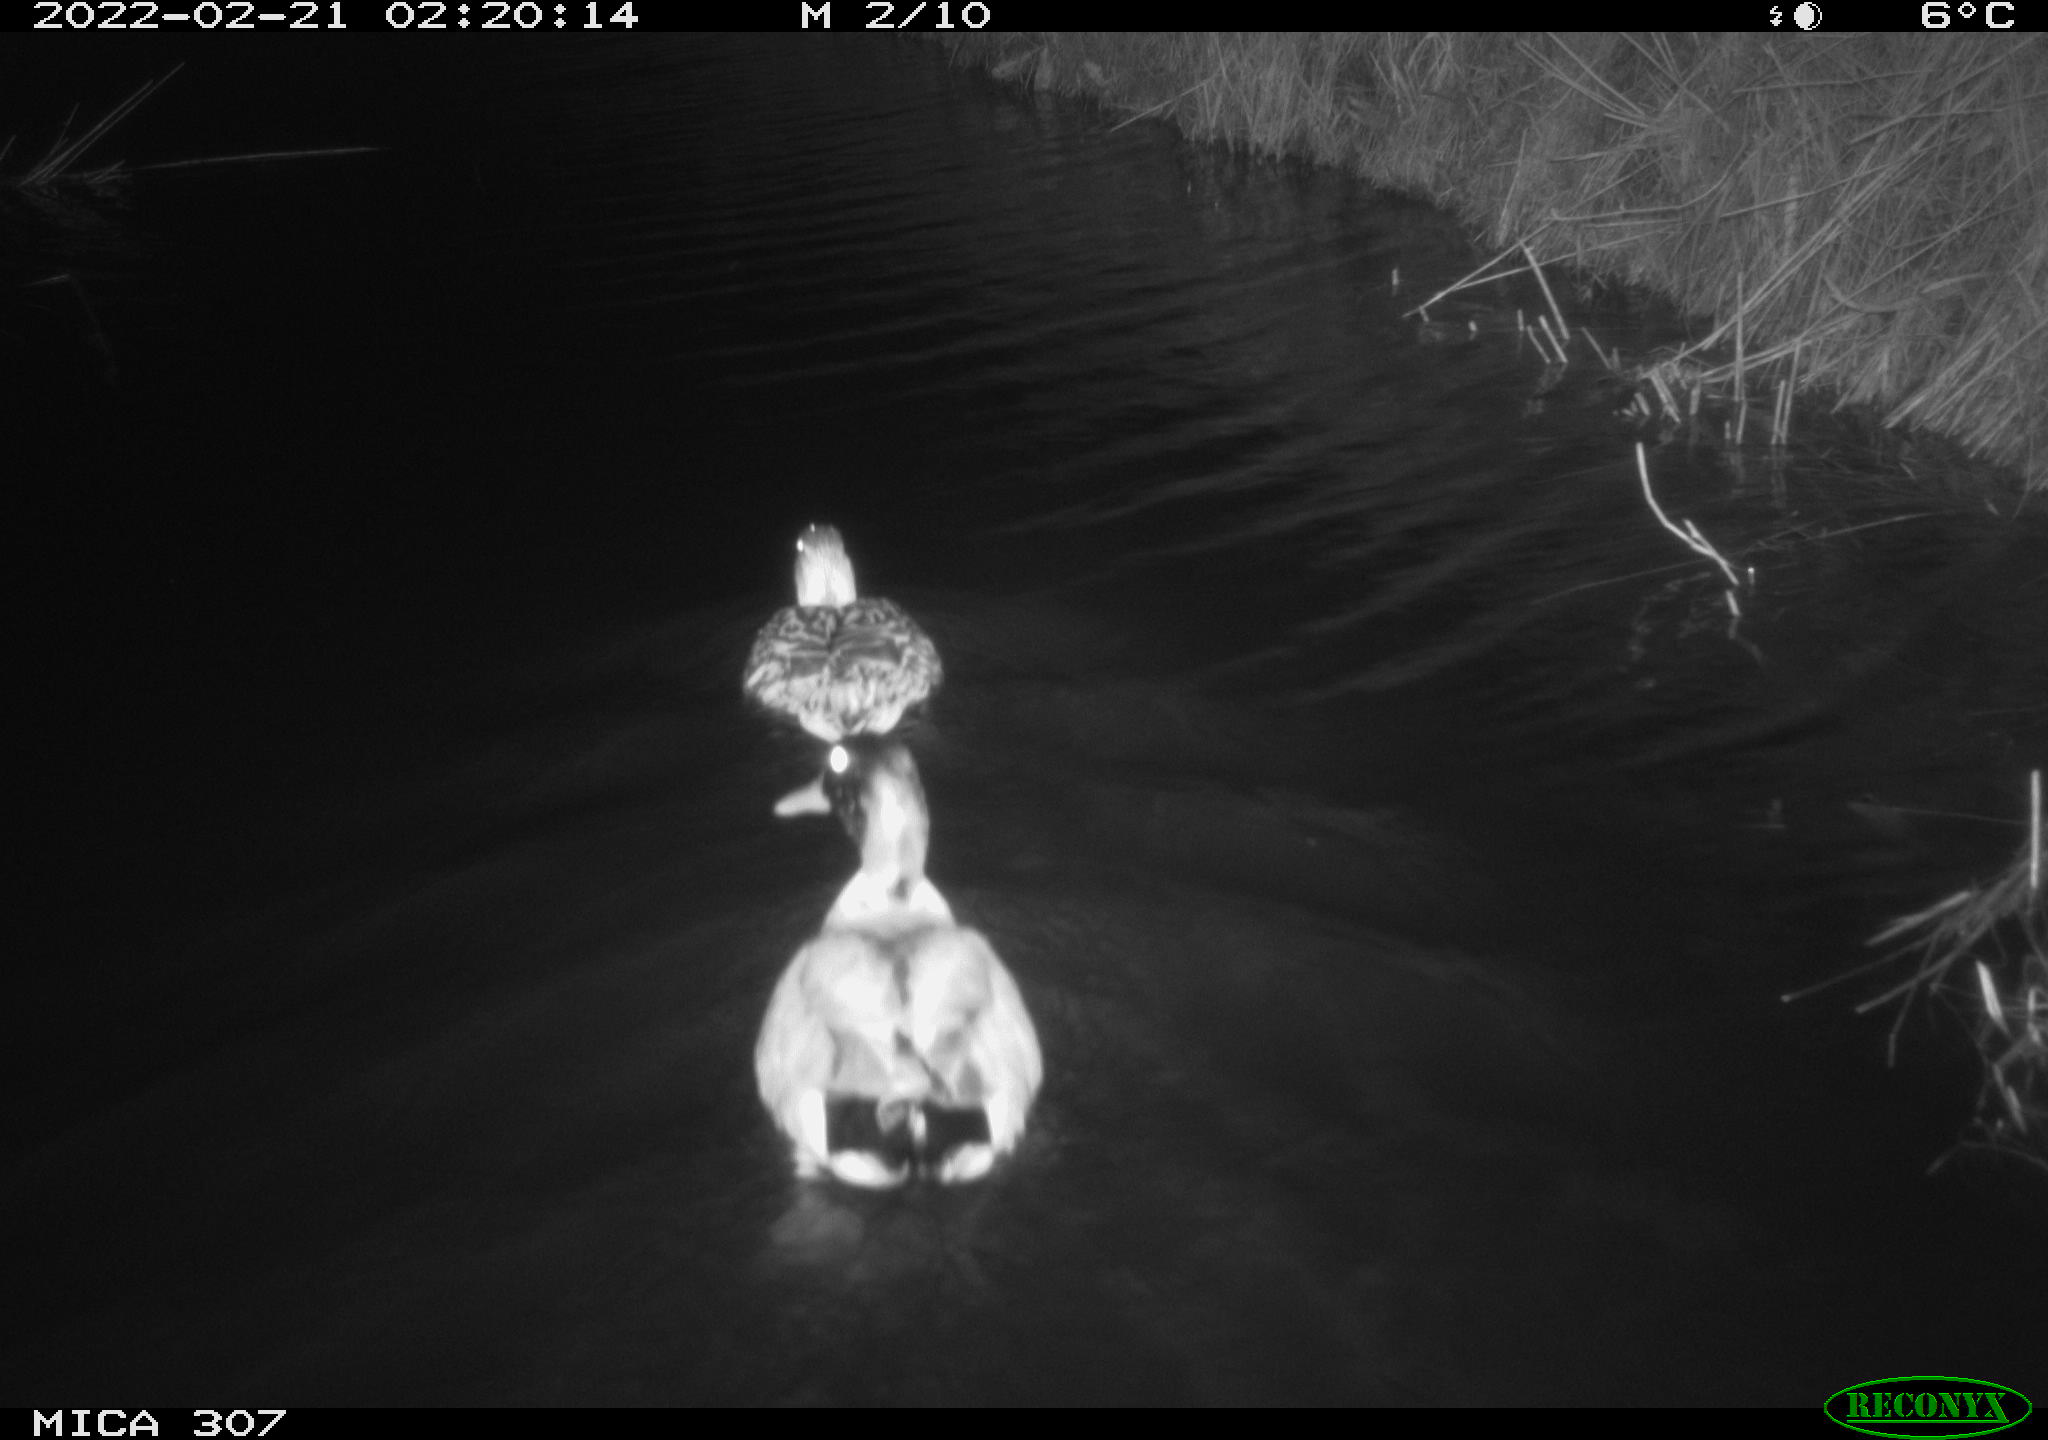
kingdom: Animalia
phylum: Chordata
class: Aves
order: Anseriformes
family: Anatidae
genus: Anas
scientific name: Anas platyrhynchos
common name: Mallard
